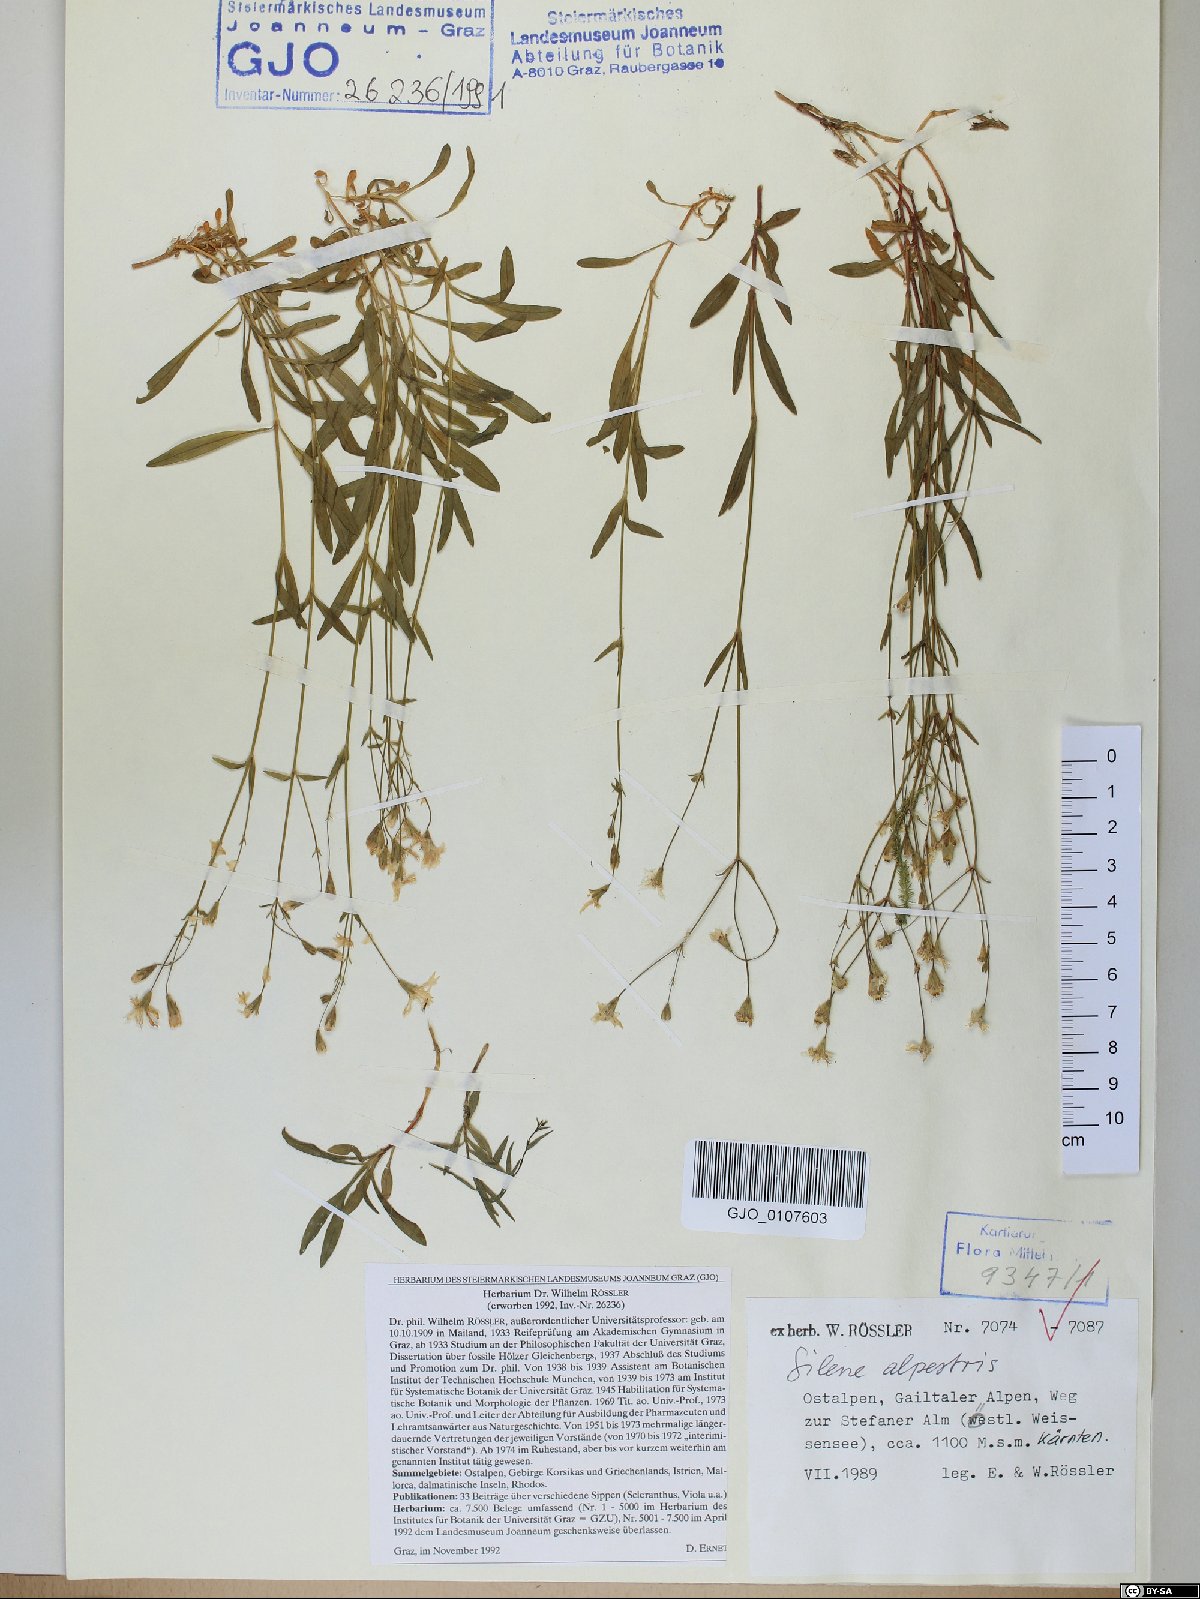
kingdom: Plantae
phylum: Tracheophyta
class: Magnoliopsida
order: Caryophyllales
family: Caryophyllaceae
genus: Heliosperma
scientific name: Heliosperma alpestre
